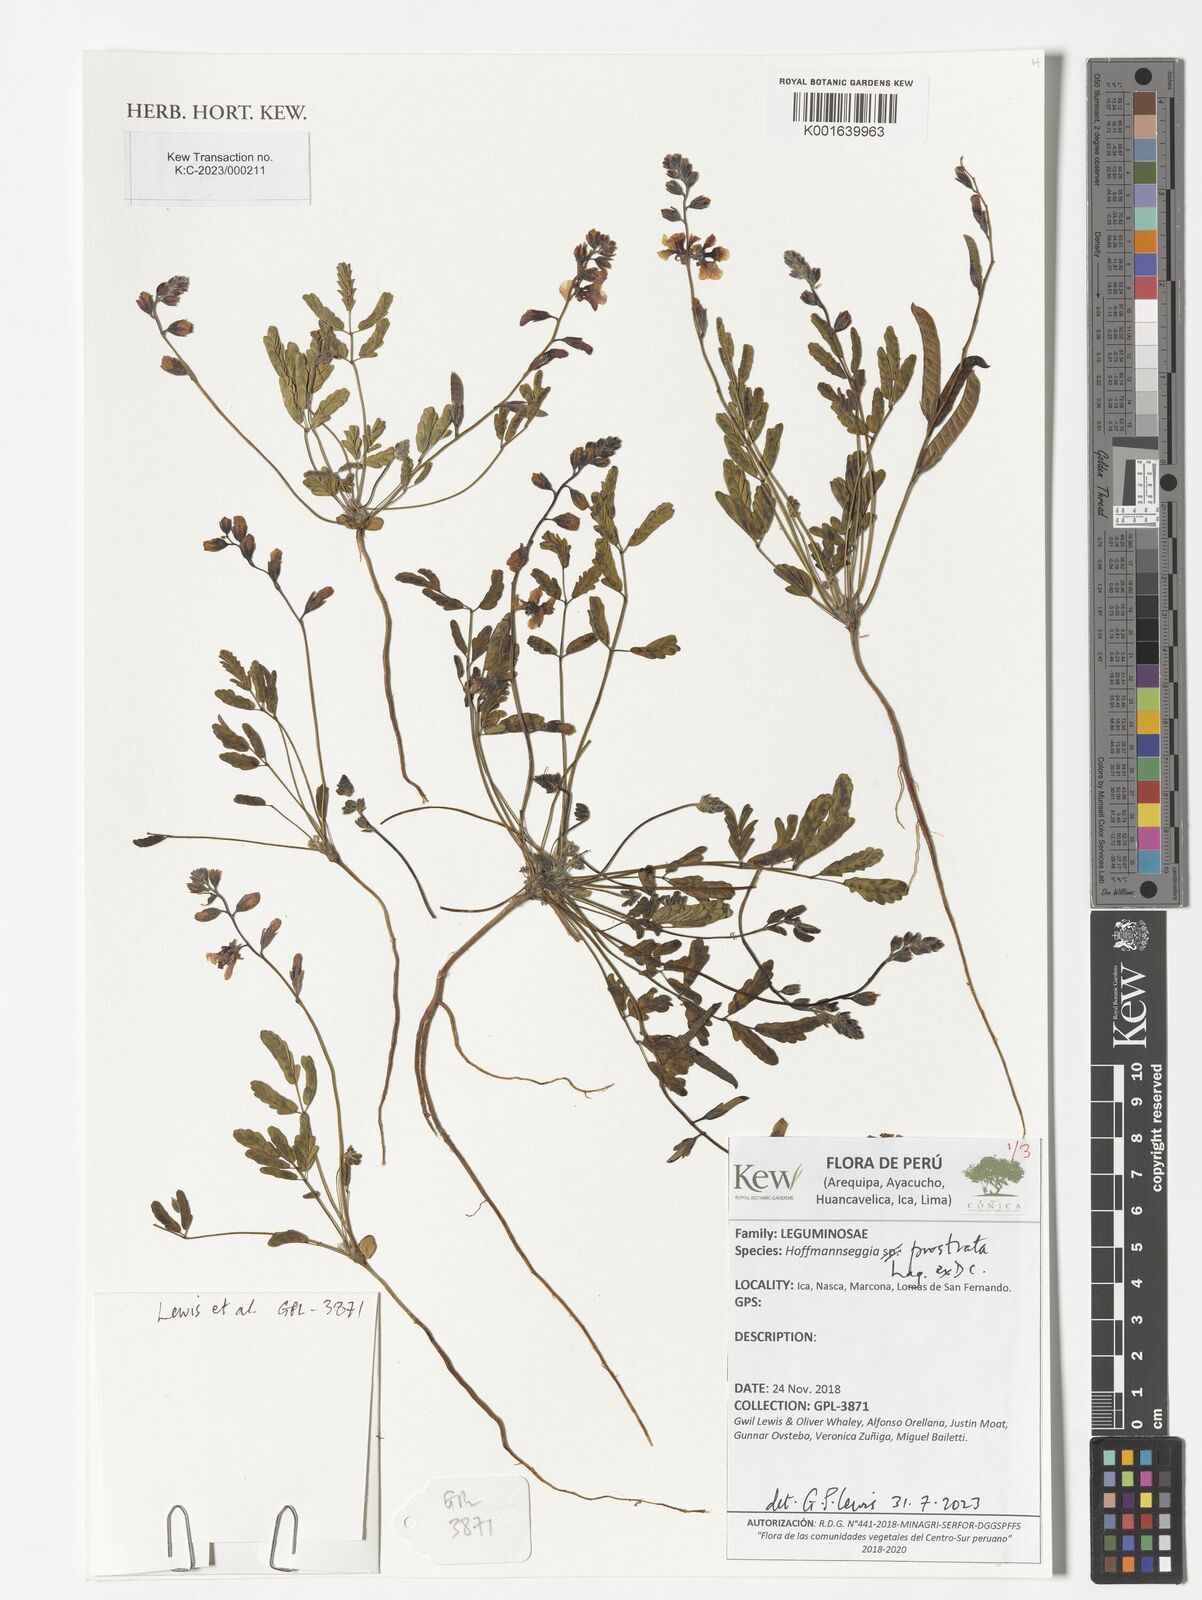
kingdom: Plantae
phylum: Tracheophyta
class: Magnoliopsida
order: Fabales
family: Fabaceae
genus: Hoffmannseggia
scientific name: Hoffmannseggia prostrata
